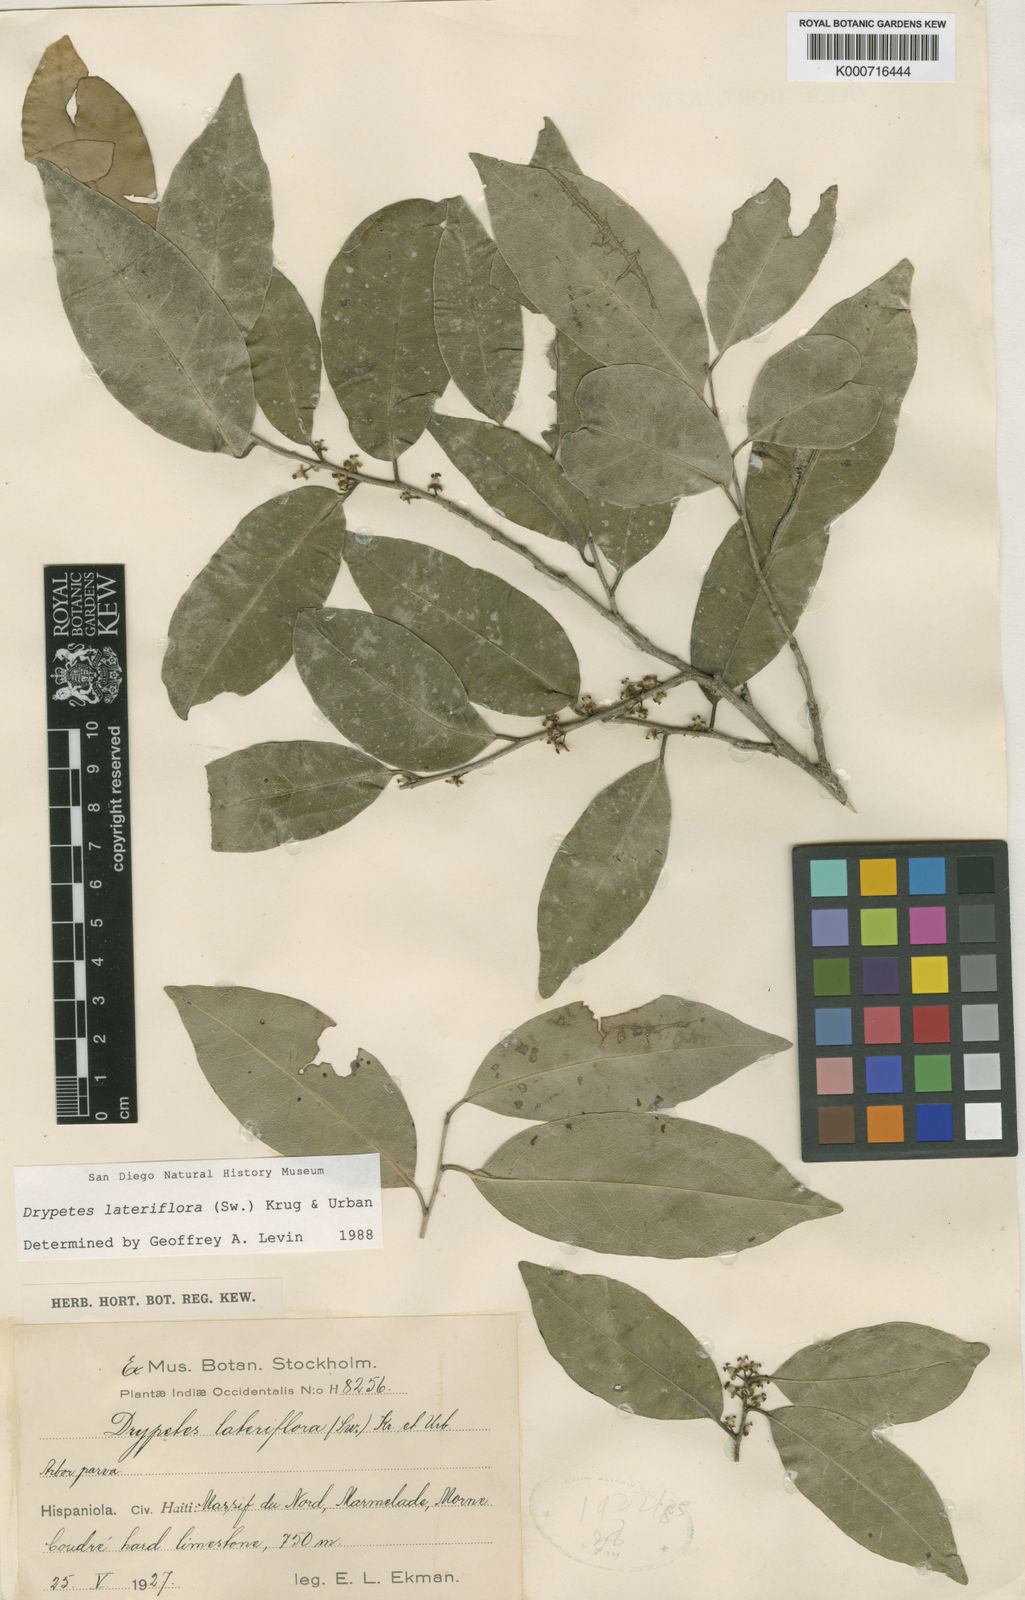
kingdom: Plantae
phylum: Tracheophyta
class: Magnoliopsida
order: Malpighiales
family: Putranjivaceae
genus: Drypetes
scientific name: Drypetes lateriflora
